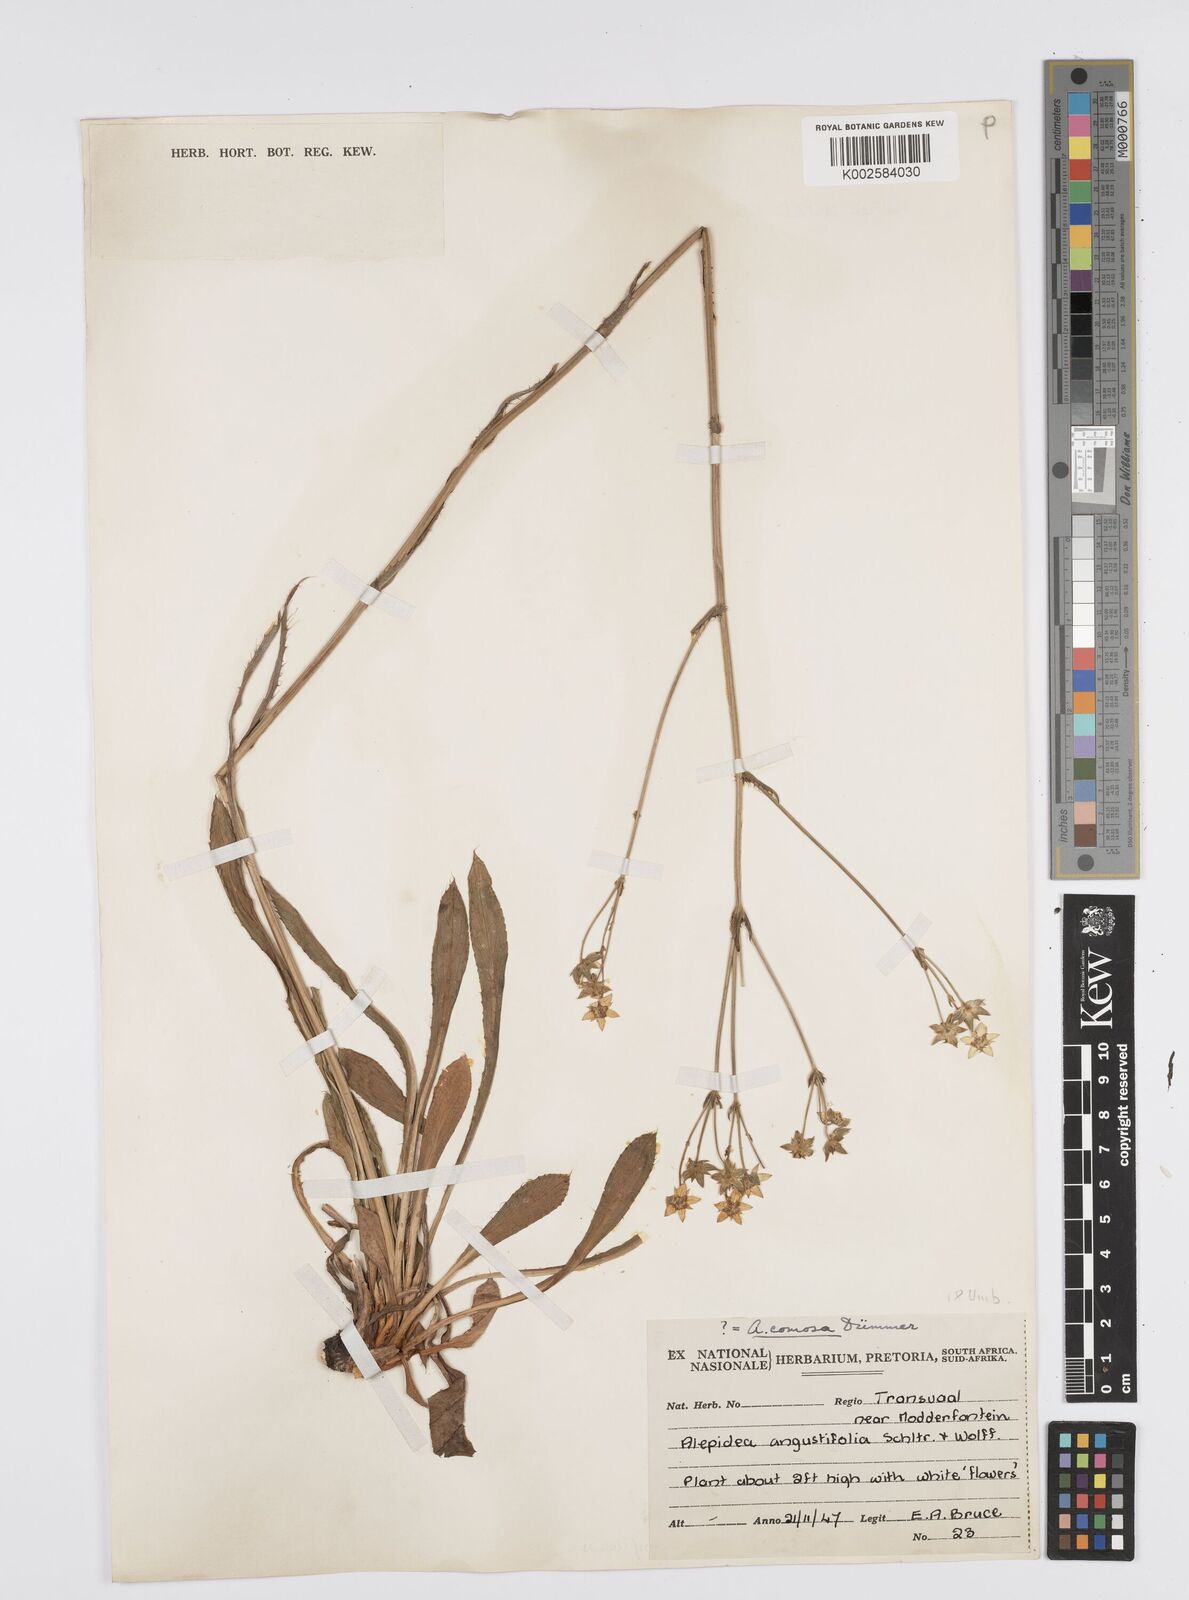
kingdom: Plantae
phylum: Tracheophyta
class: Magnoliopsida
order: Apiales
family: Apiaceae
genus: Alepidea
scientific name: Alepidea
